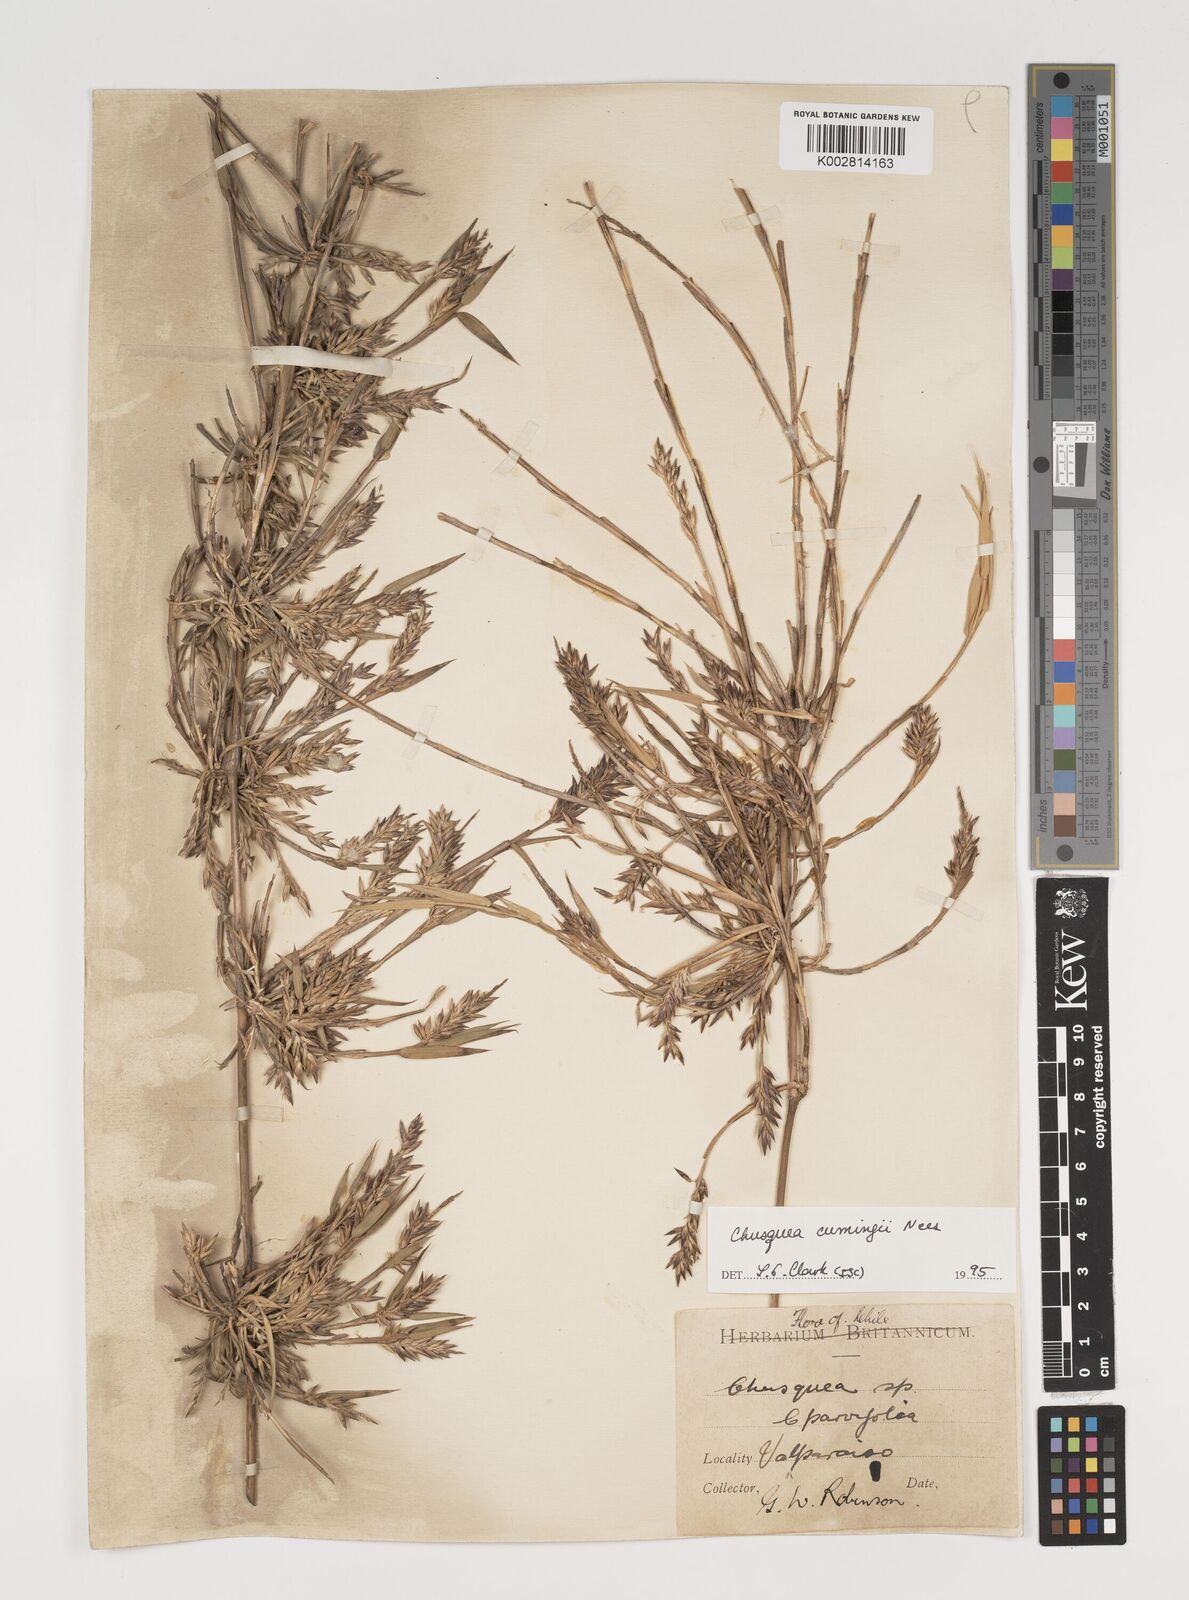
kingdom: Plantae
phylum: Tracheophyta
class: Liliopsida
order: Poales
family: Poaceae
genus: Chusquea
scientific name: Chusquea cumingii
